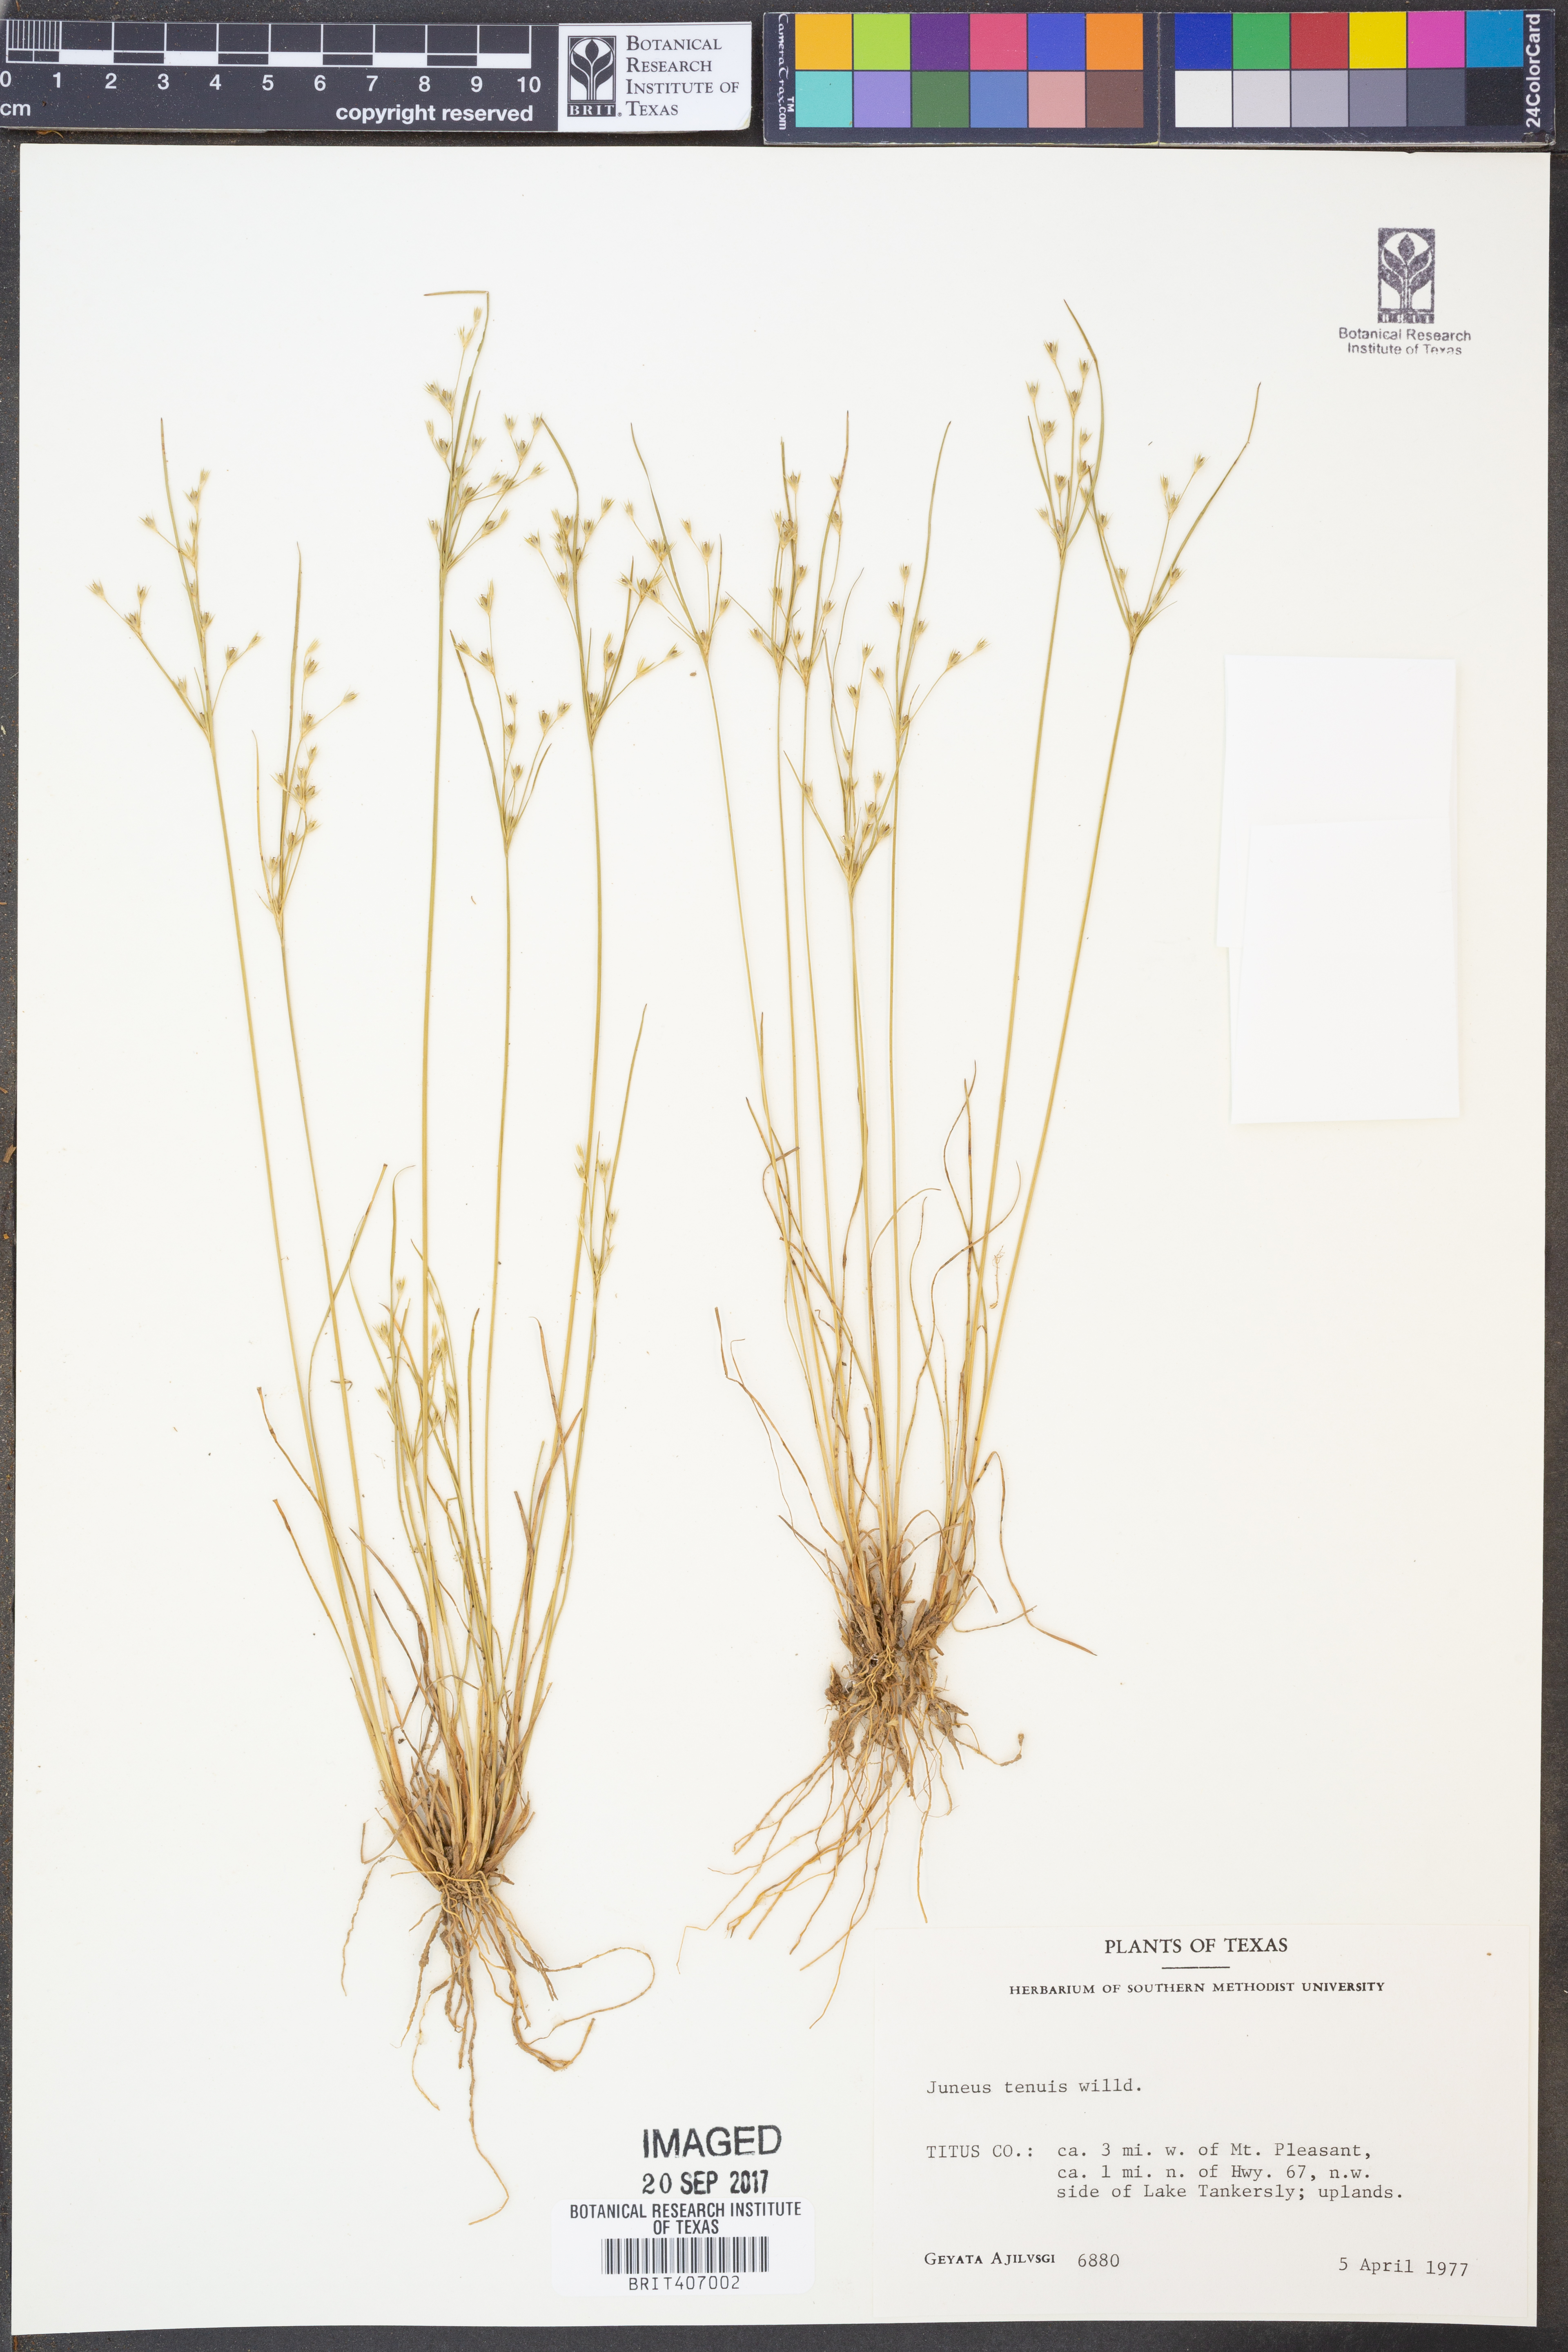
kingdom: Plantae
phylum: Tracheophyta
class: Liliopsida
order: Poales
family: Juncaceae
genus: Juncus
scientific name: Juncus tenuis
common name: Slender rush
